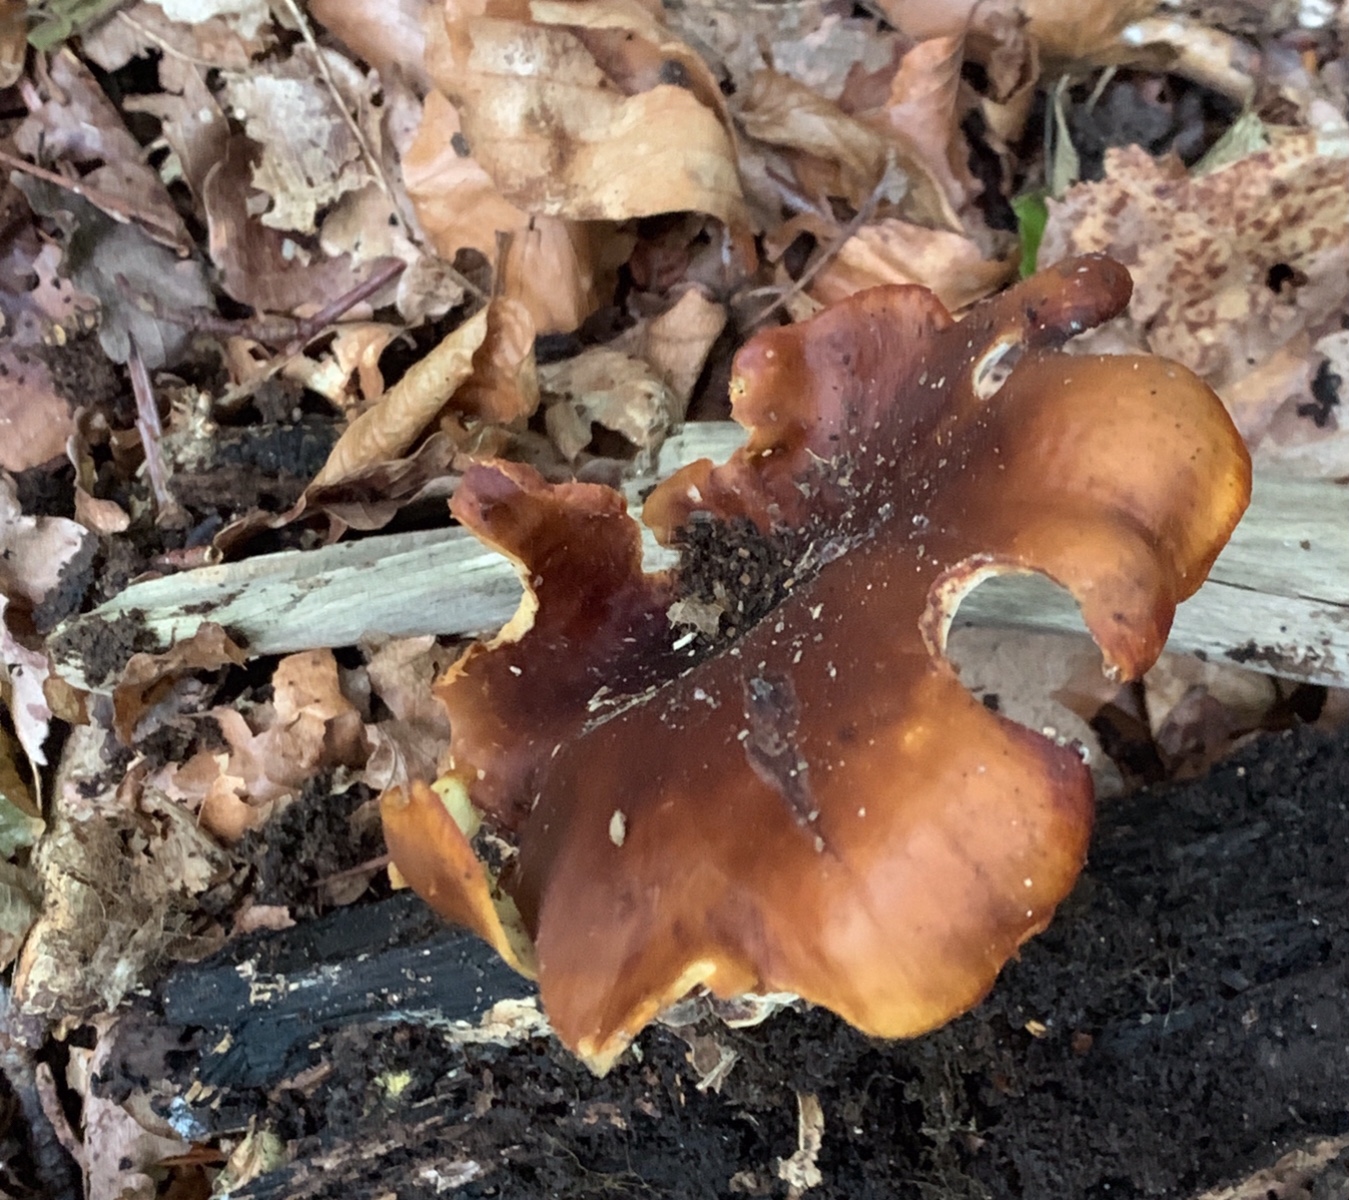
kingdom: Fungi
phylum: Basidiomycota
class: Agaricomycetes
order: Polyporales
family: Polyporaceae
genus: Picipes
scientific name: Picipes badius
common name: kastaniebrun stilkporesvamp
